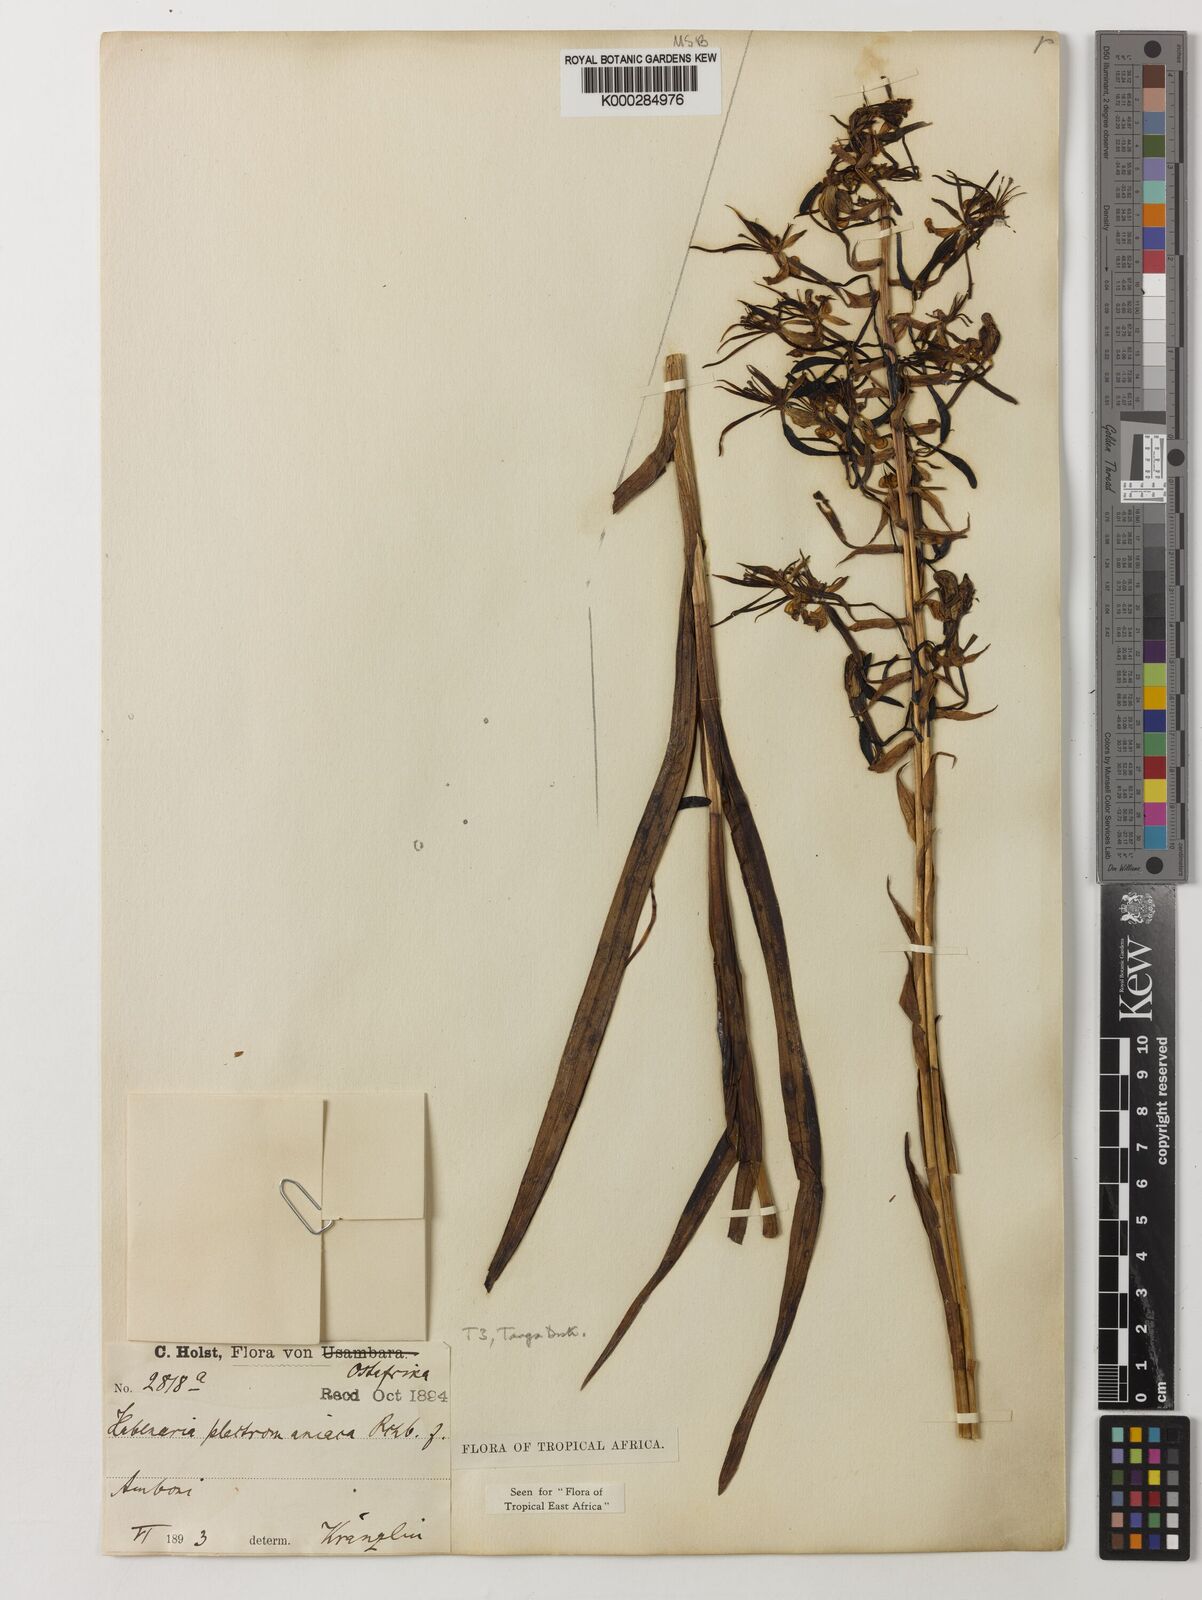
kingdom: Plantae
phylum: Tracheophyta
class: Liliopsida
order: Asparagales
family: Orchidaceae
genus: Habenaria
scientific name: Habenaria plectromaniaca
